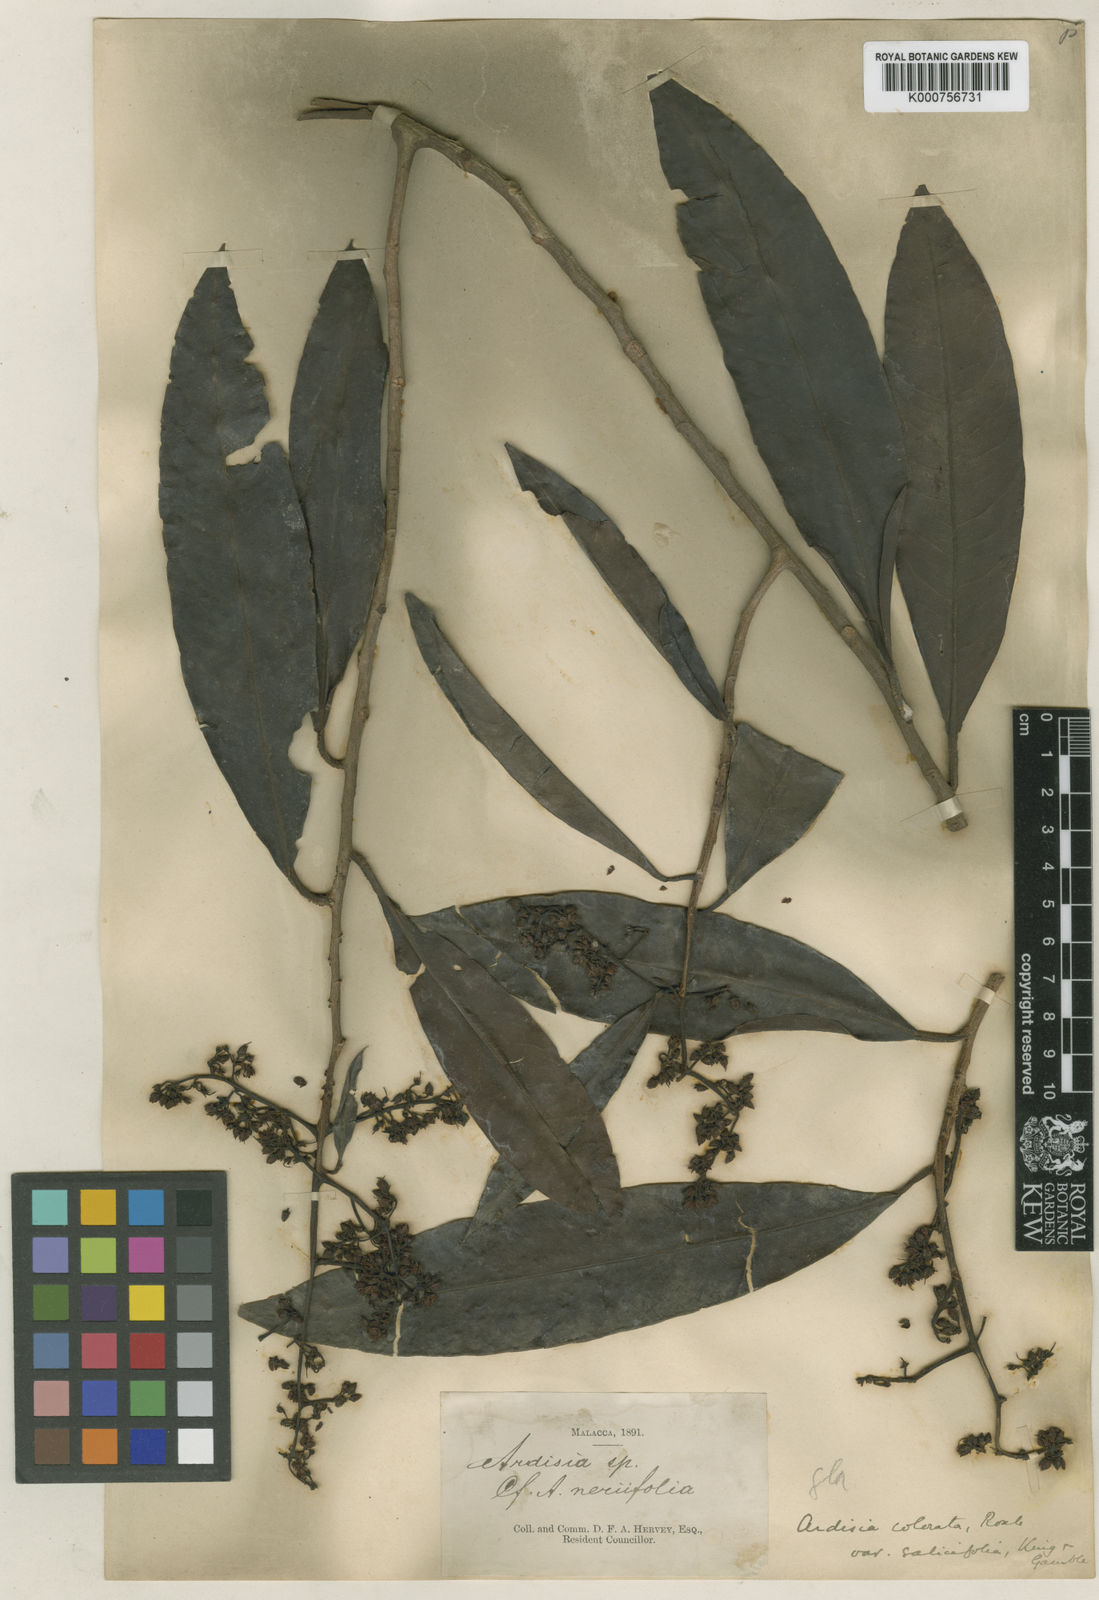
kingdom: Plantae
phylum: Tracheophyta
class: Magnoliopsida
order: Ericales
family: Primulaceae
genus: Ardisia
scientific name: Ardisia complanata
